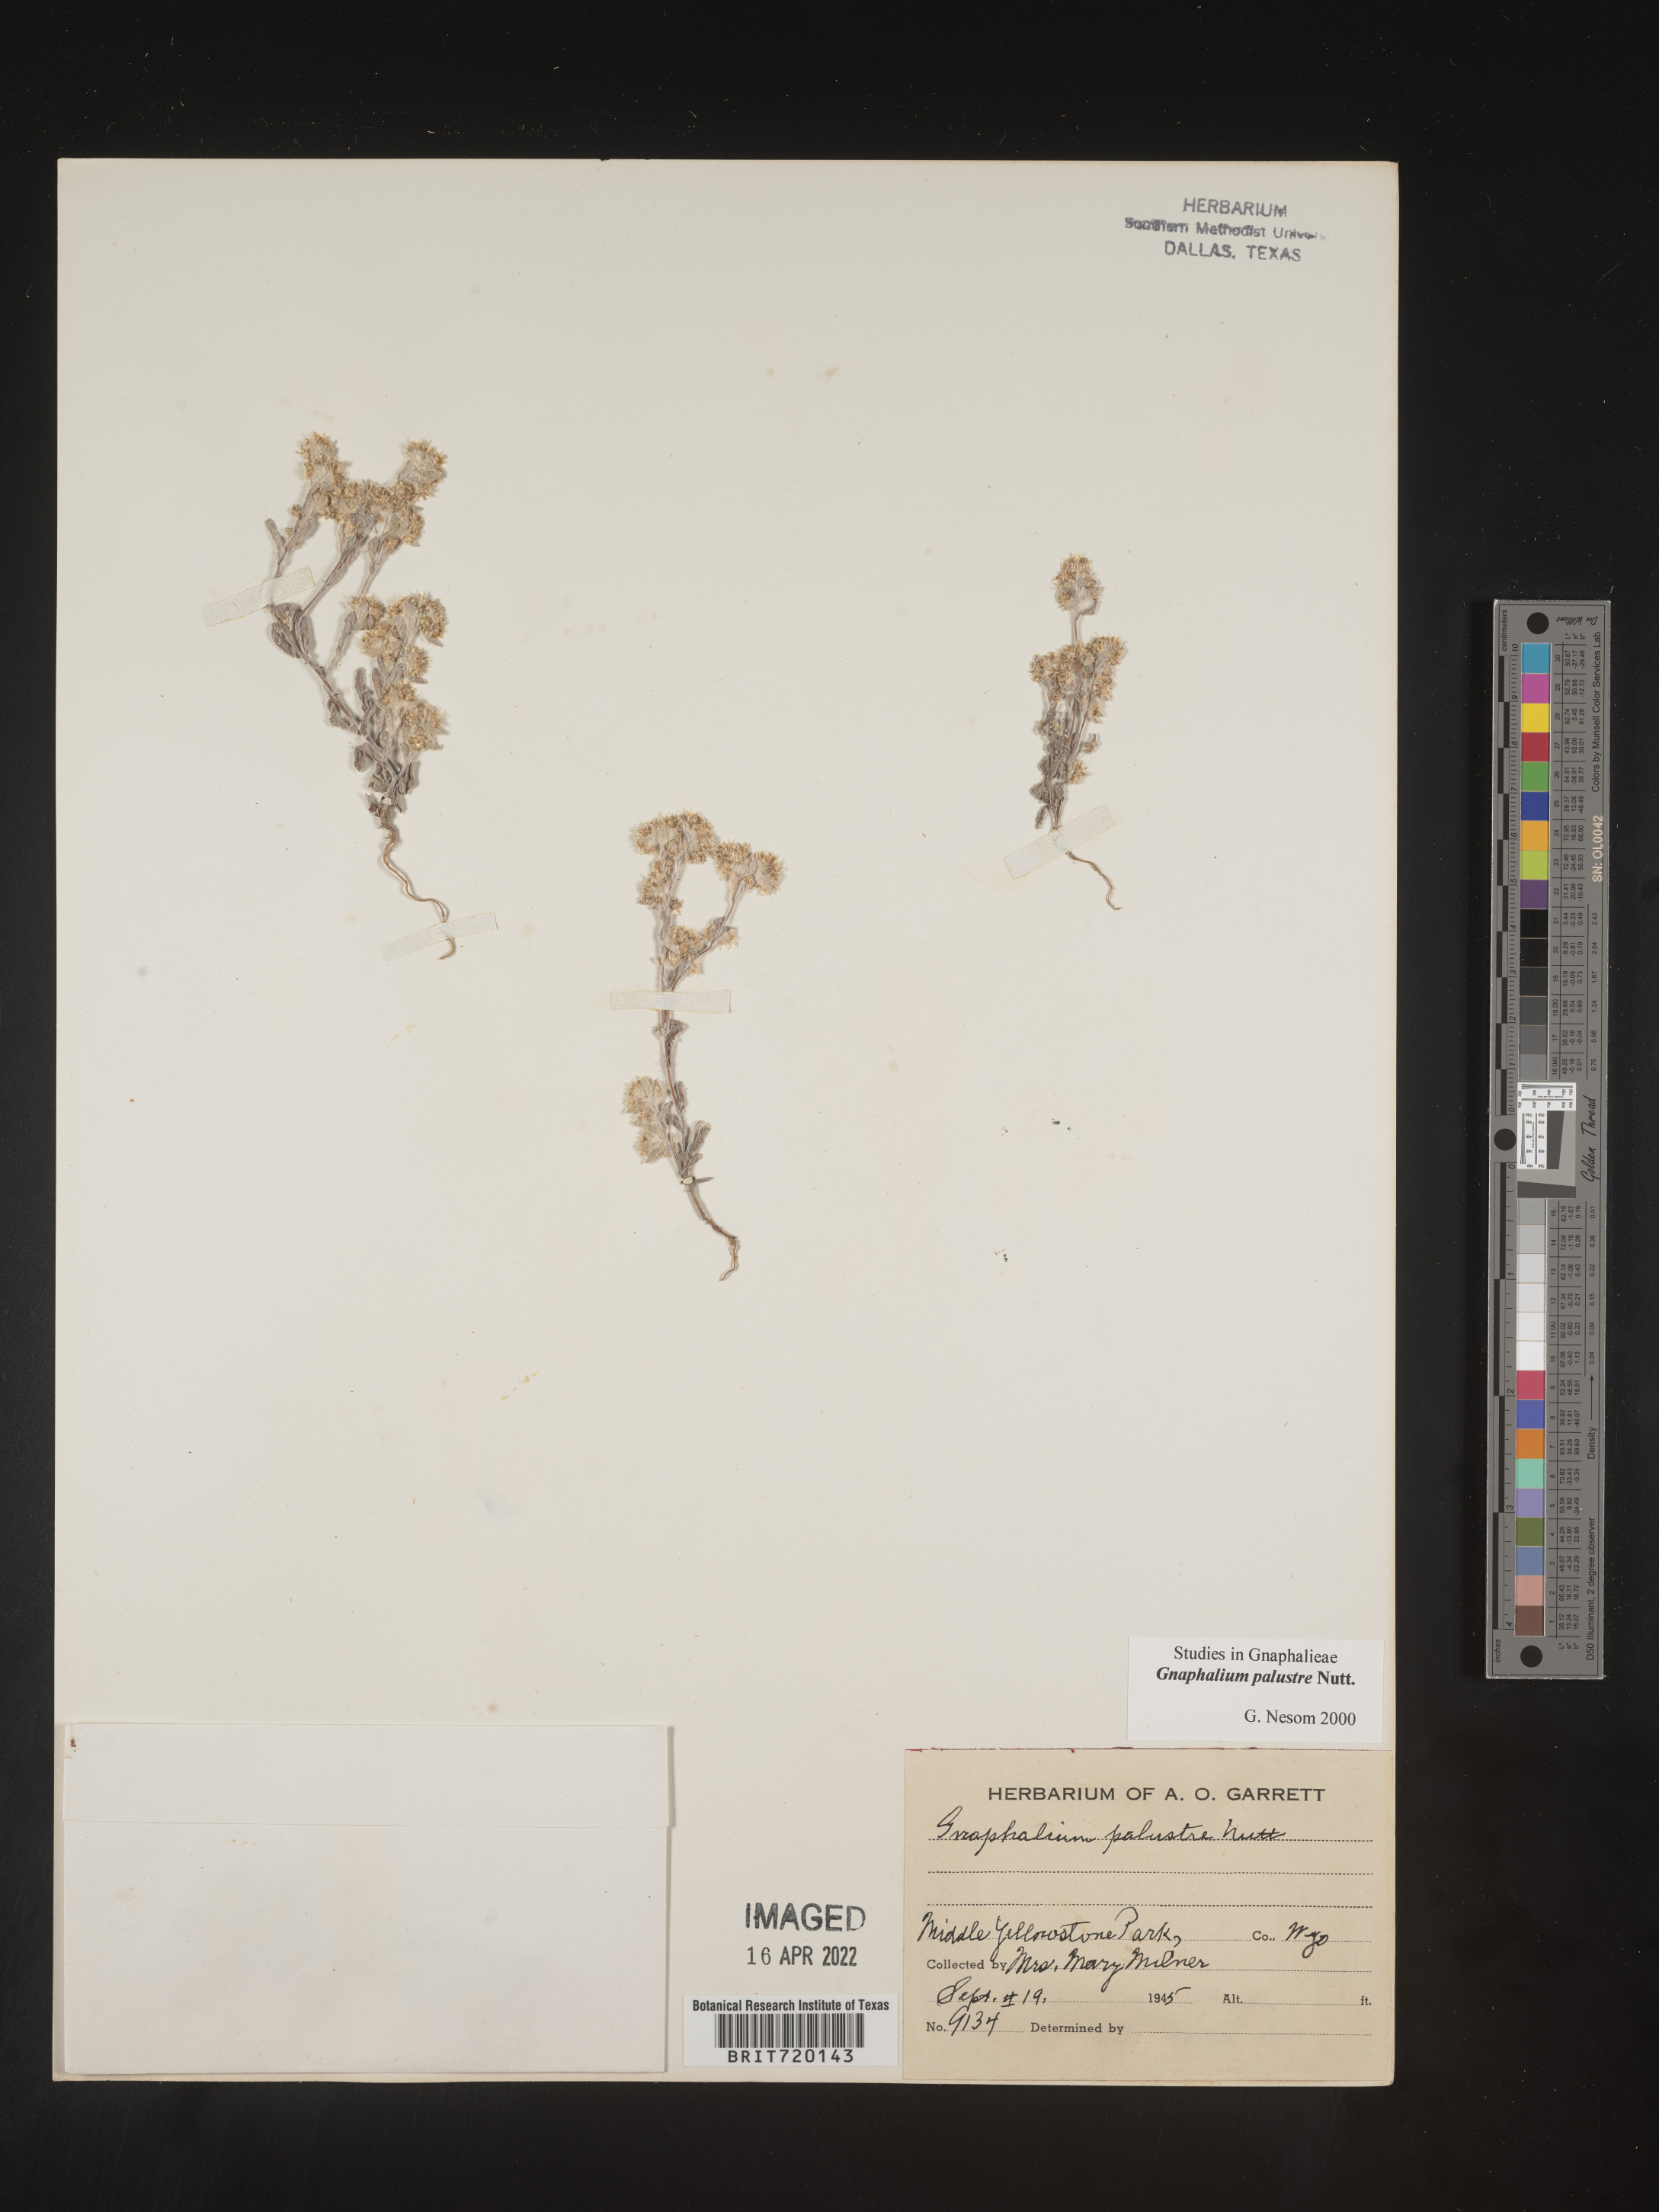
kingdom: Plantae
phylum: Tracheophyta
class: Magnoliopsida
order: Asterales
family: Asteraceae
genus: Gnaphalium
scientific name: Gnaphalium palustre
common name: Western marsh cudweed
